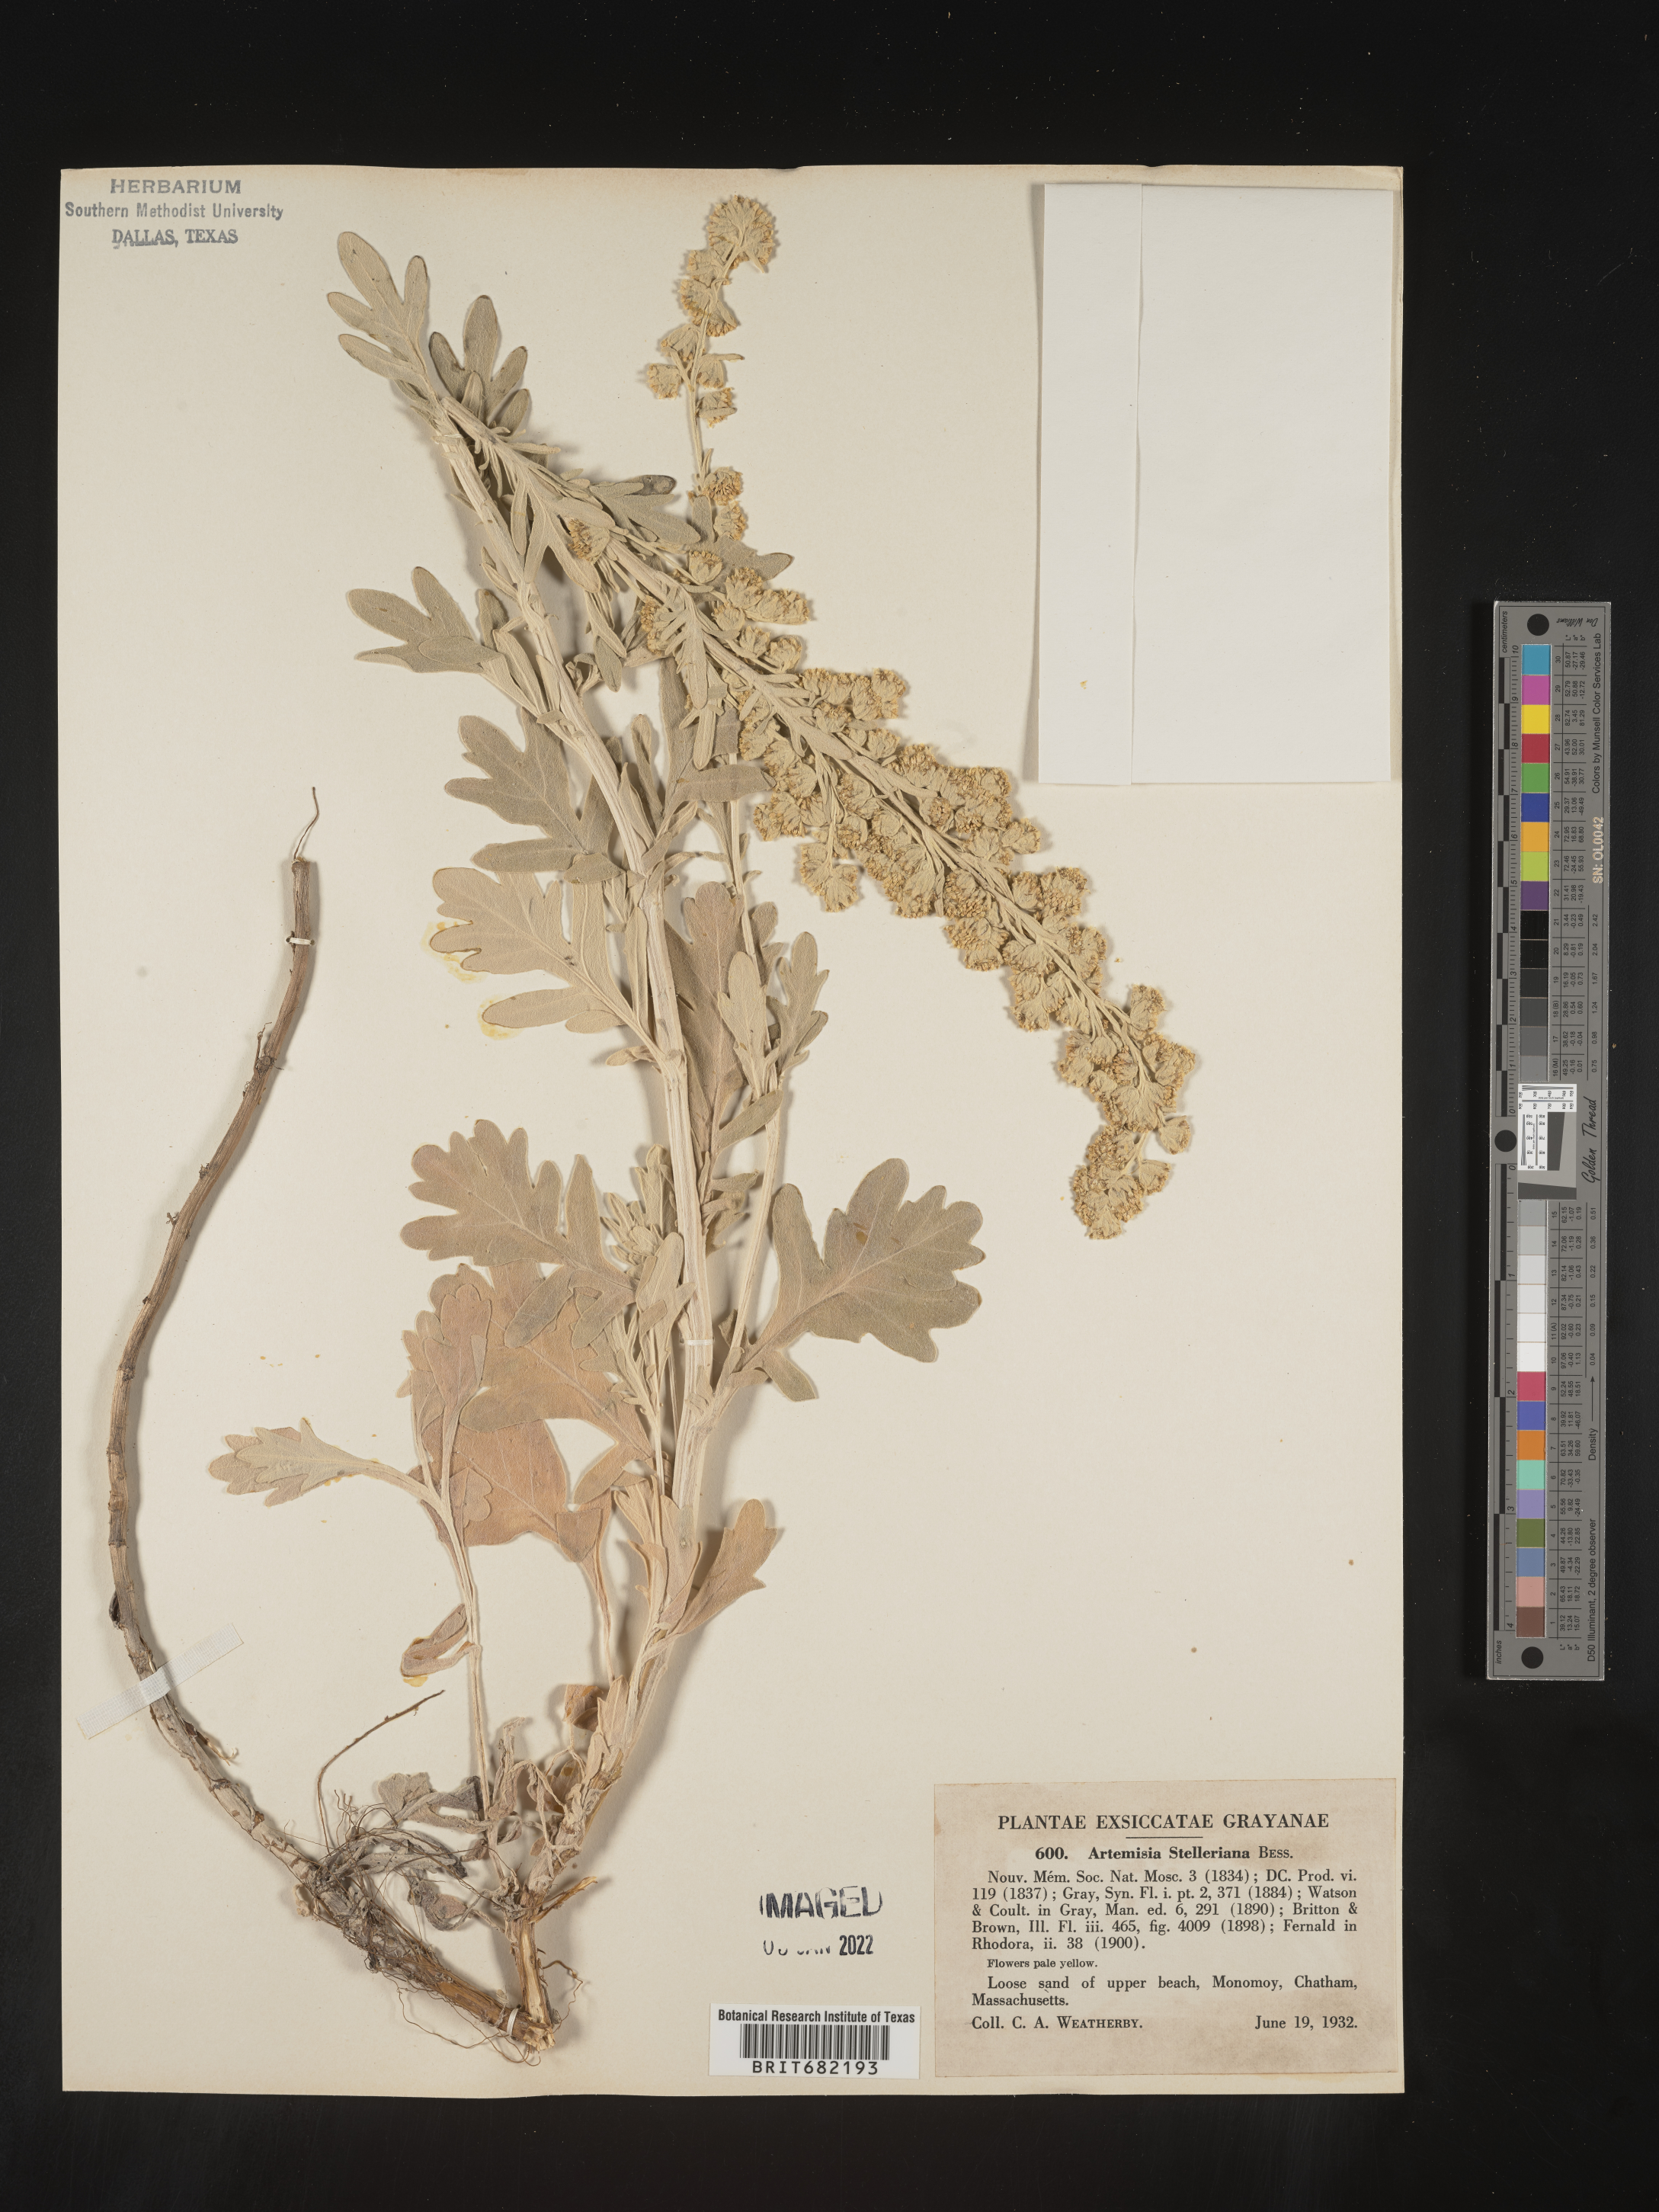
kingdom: Plantae
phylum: Tracheophyta
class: Magnoliopsida
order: Asterales
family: Asteraceae
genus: Artemisia
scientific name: Artemisia stelleriana
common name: Beach wormwood
